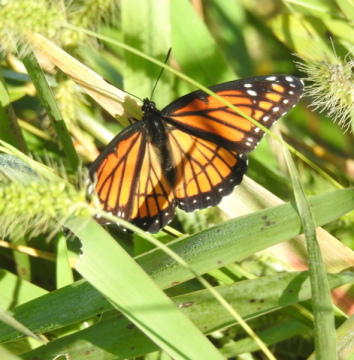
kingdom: Animalia
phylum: Arthropoda
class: Insecta
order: Lepidoptera
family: Nymphalidae
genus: Limenitis
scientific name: Limenitis archippus
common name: Viceroy
